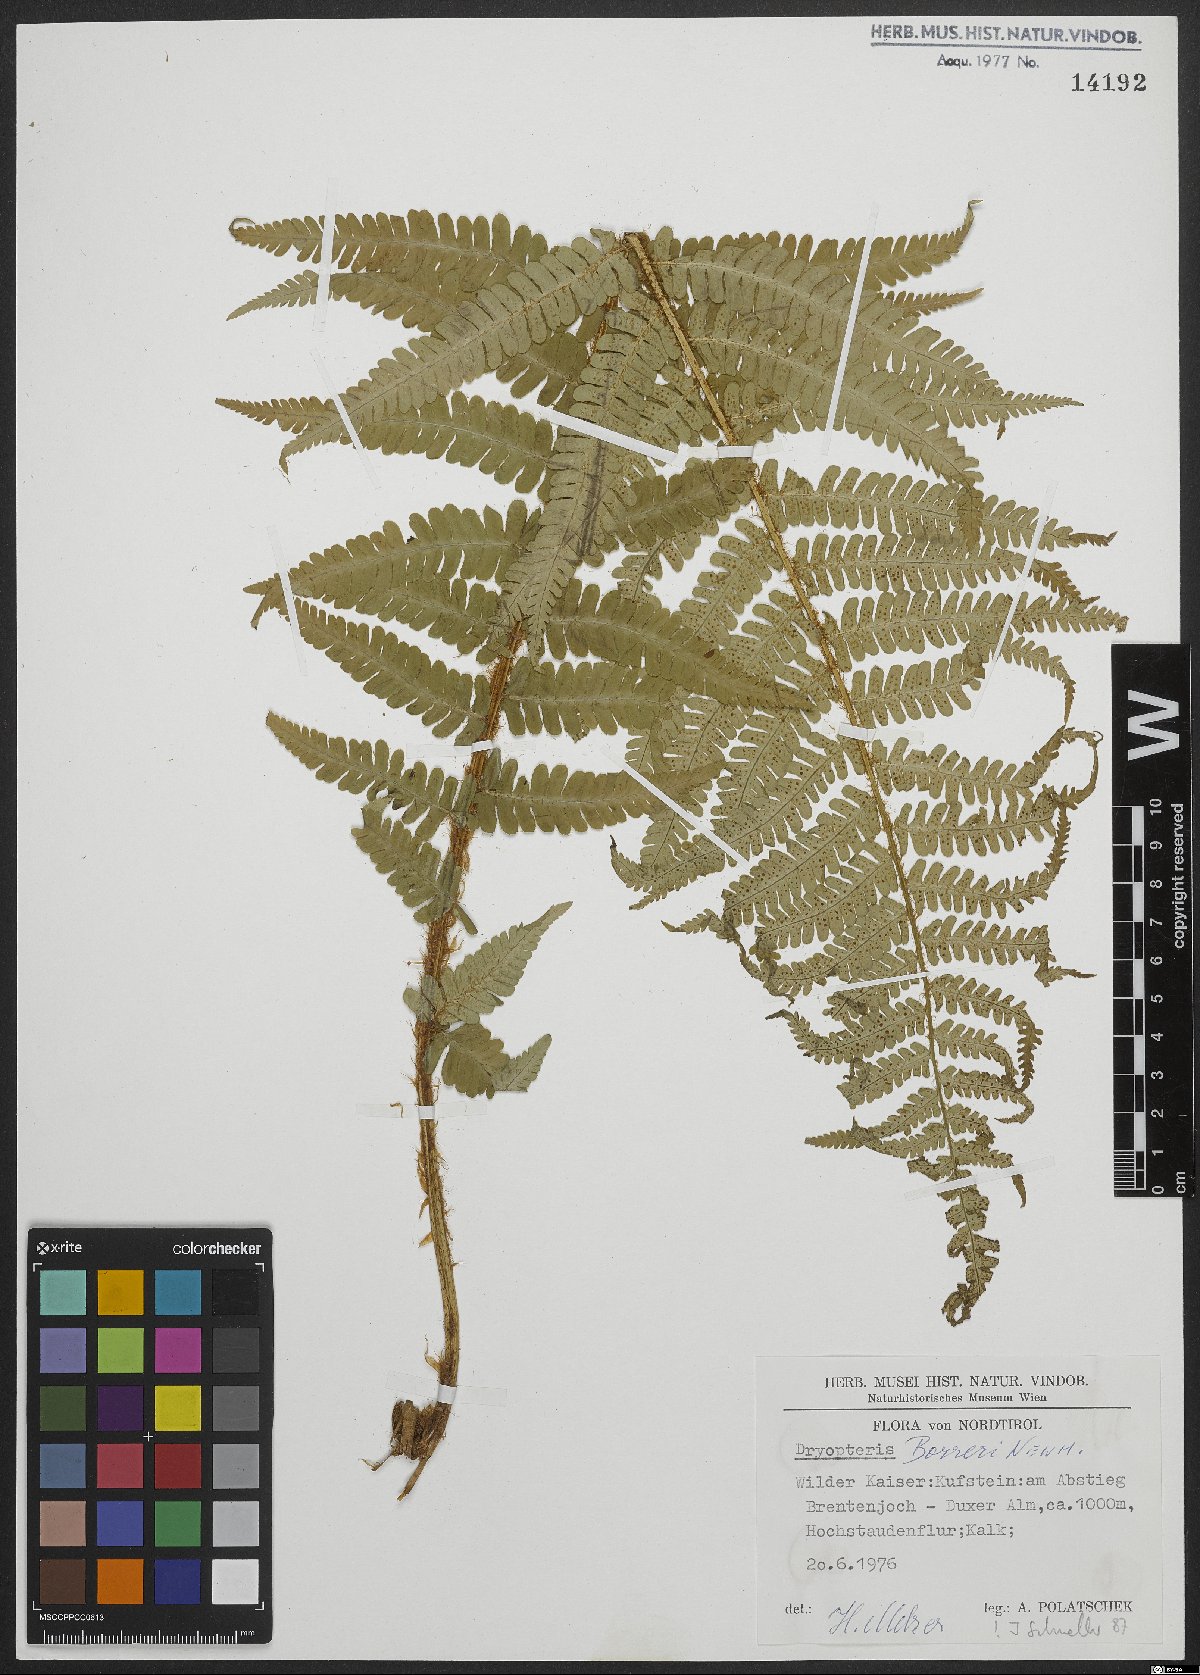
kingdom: Plantae
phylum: Tracheophyta
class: Polypodiopsida
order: Polypodiales
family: Dryopteridaceae
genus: Dryopteris
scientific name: Dryopteris borreri
